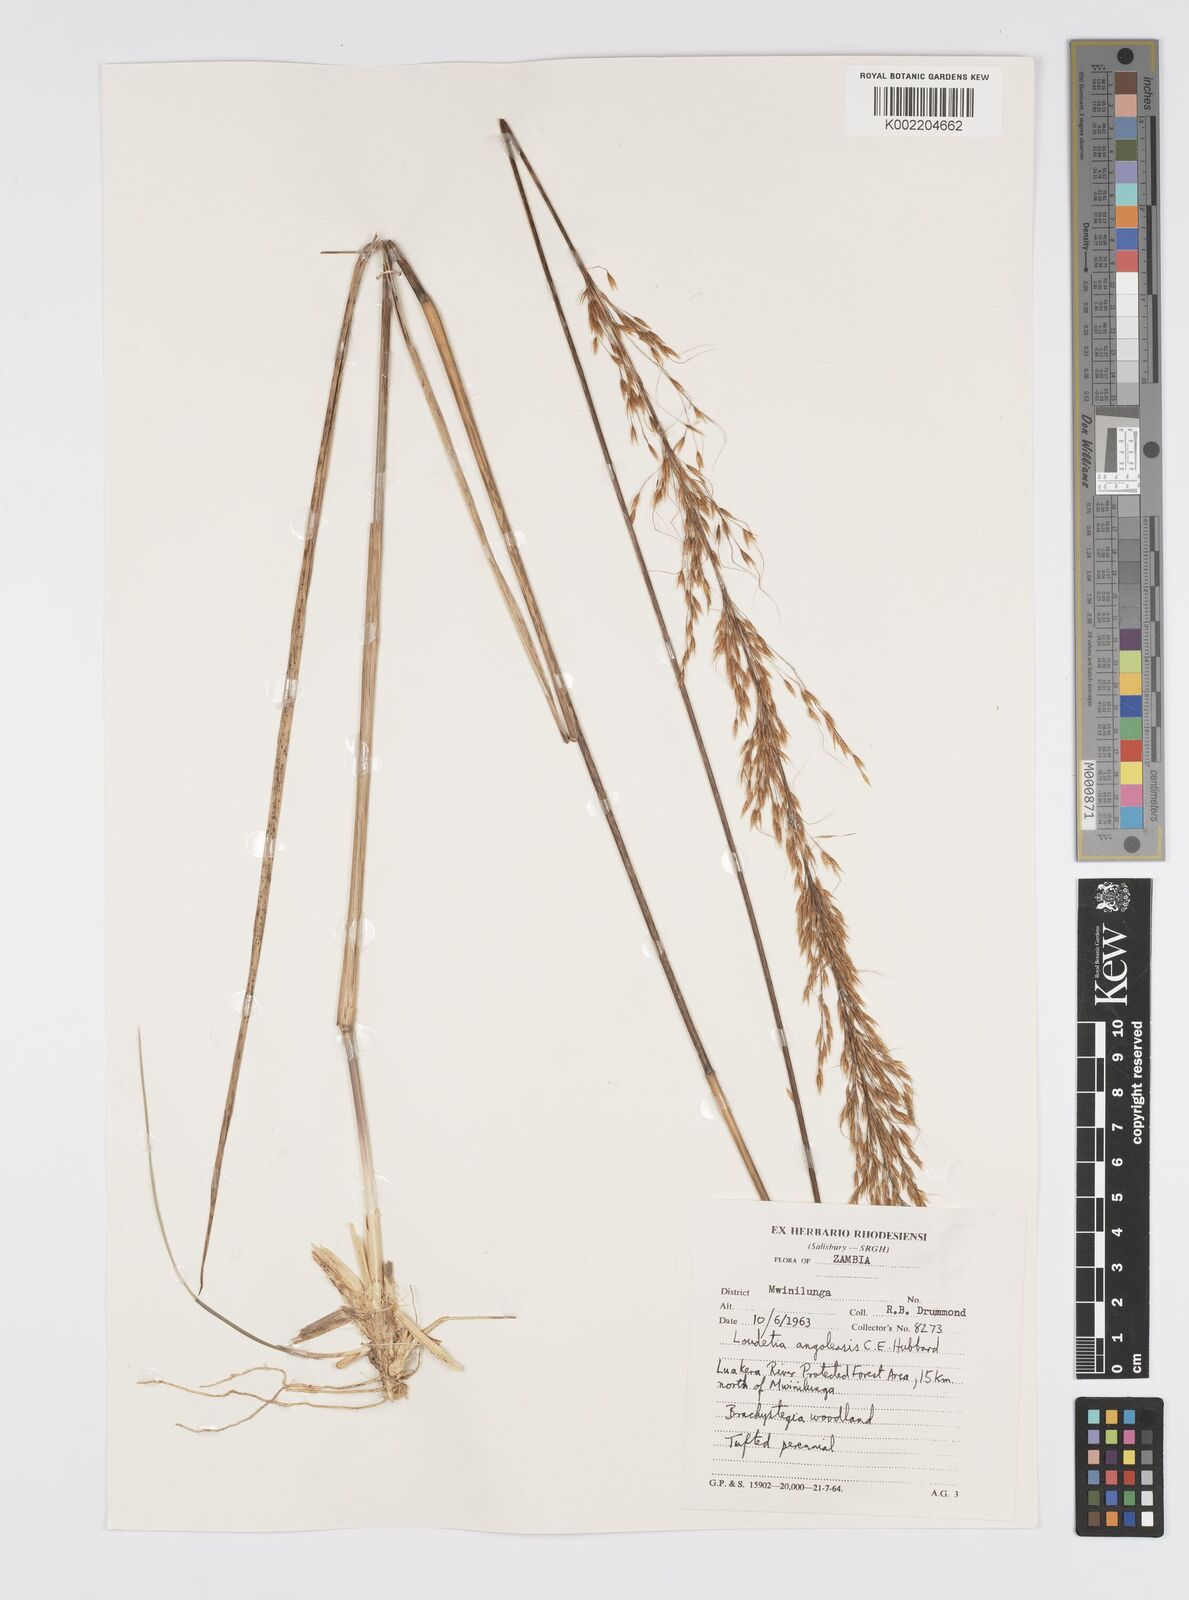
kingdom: Plantae
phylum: Tracheophyta
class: Liliopsida
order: Poales
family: Poaceae
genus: Loudetia
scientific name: Loudetia angolensis
